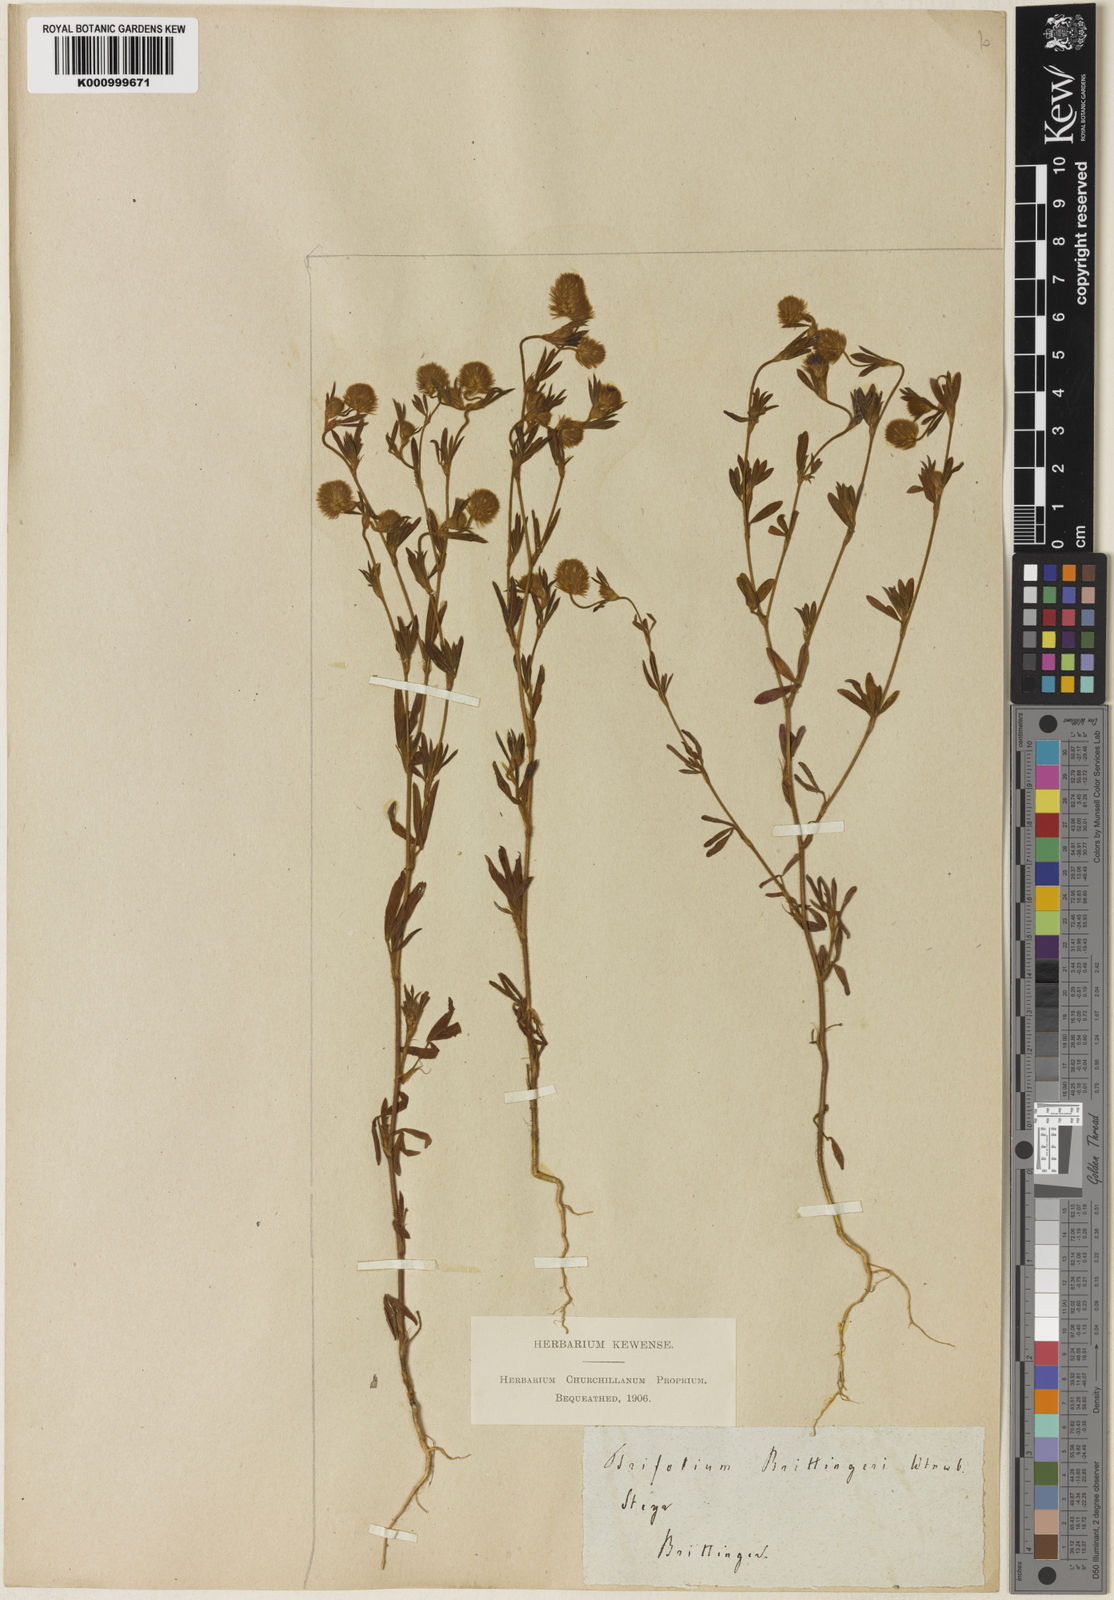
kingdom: Plantae
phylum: Tracheophyta
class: Magnoliopsida
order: Fabales
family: Fabaceae
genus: Trifolium
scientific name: Trifolium arvense
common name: Hare's-foot clover
